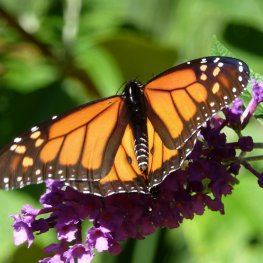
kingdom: Animalia
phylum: Arthropoda
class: Insecta
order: Lepidoptera
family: Nymphalidae
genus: Danaus
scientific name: Danaus plexippus
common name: Monarch
